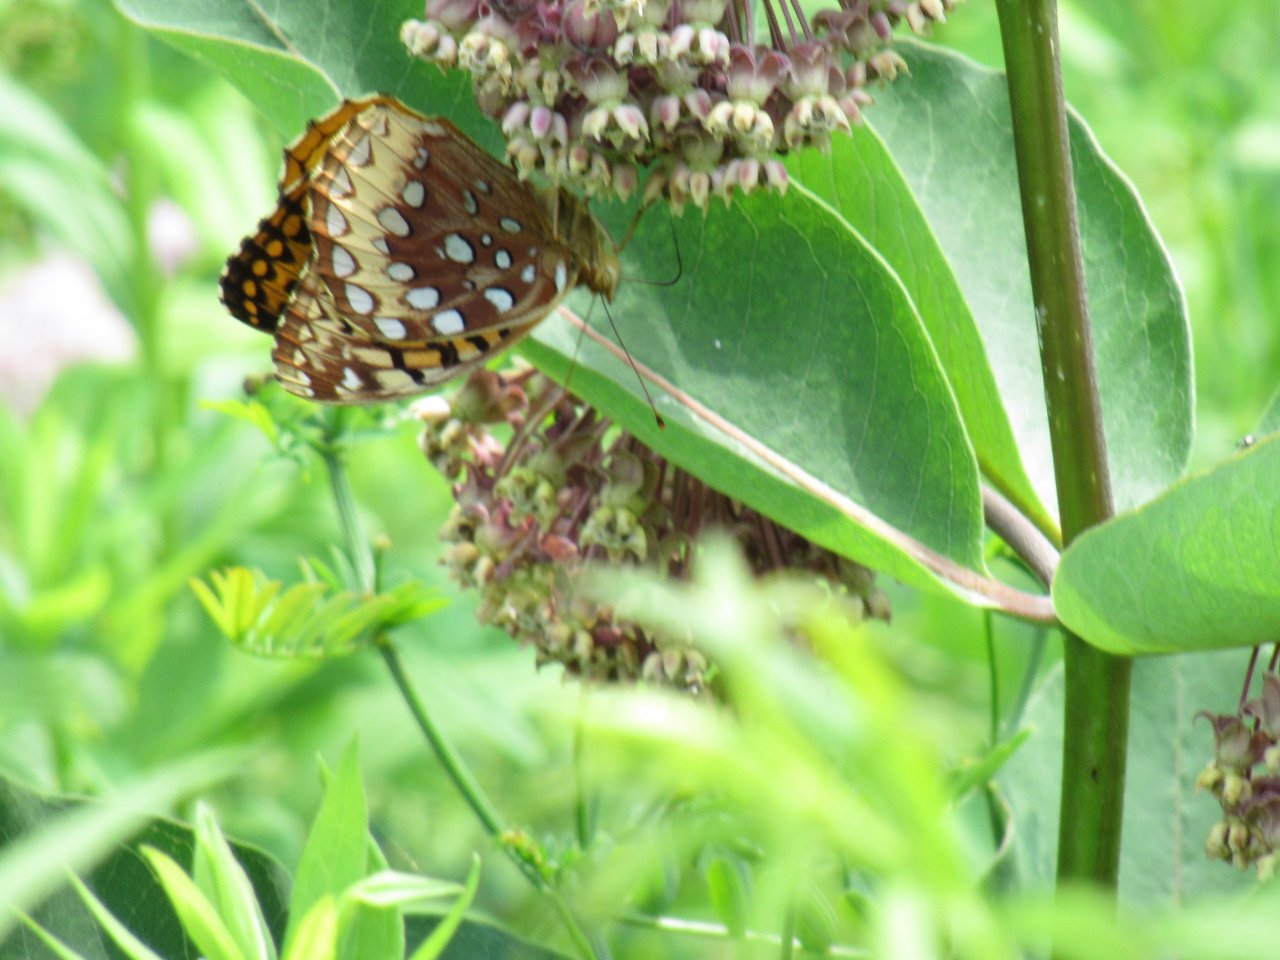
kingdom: Animalia
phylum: Arthropoda
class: Insecta
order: Lepidoptera
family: Nymphalidae
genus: Speyeria
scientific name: Speyeria cybele
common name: Great Spangled Fritillary
